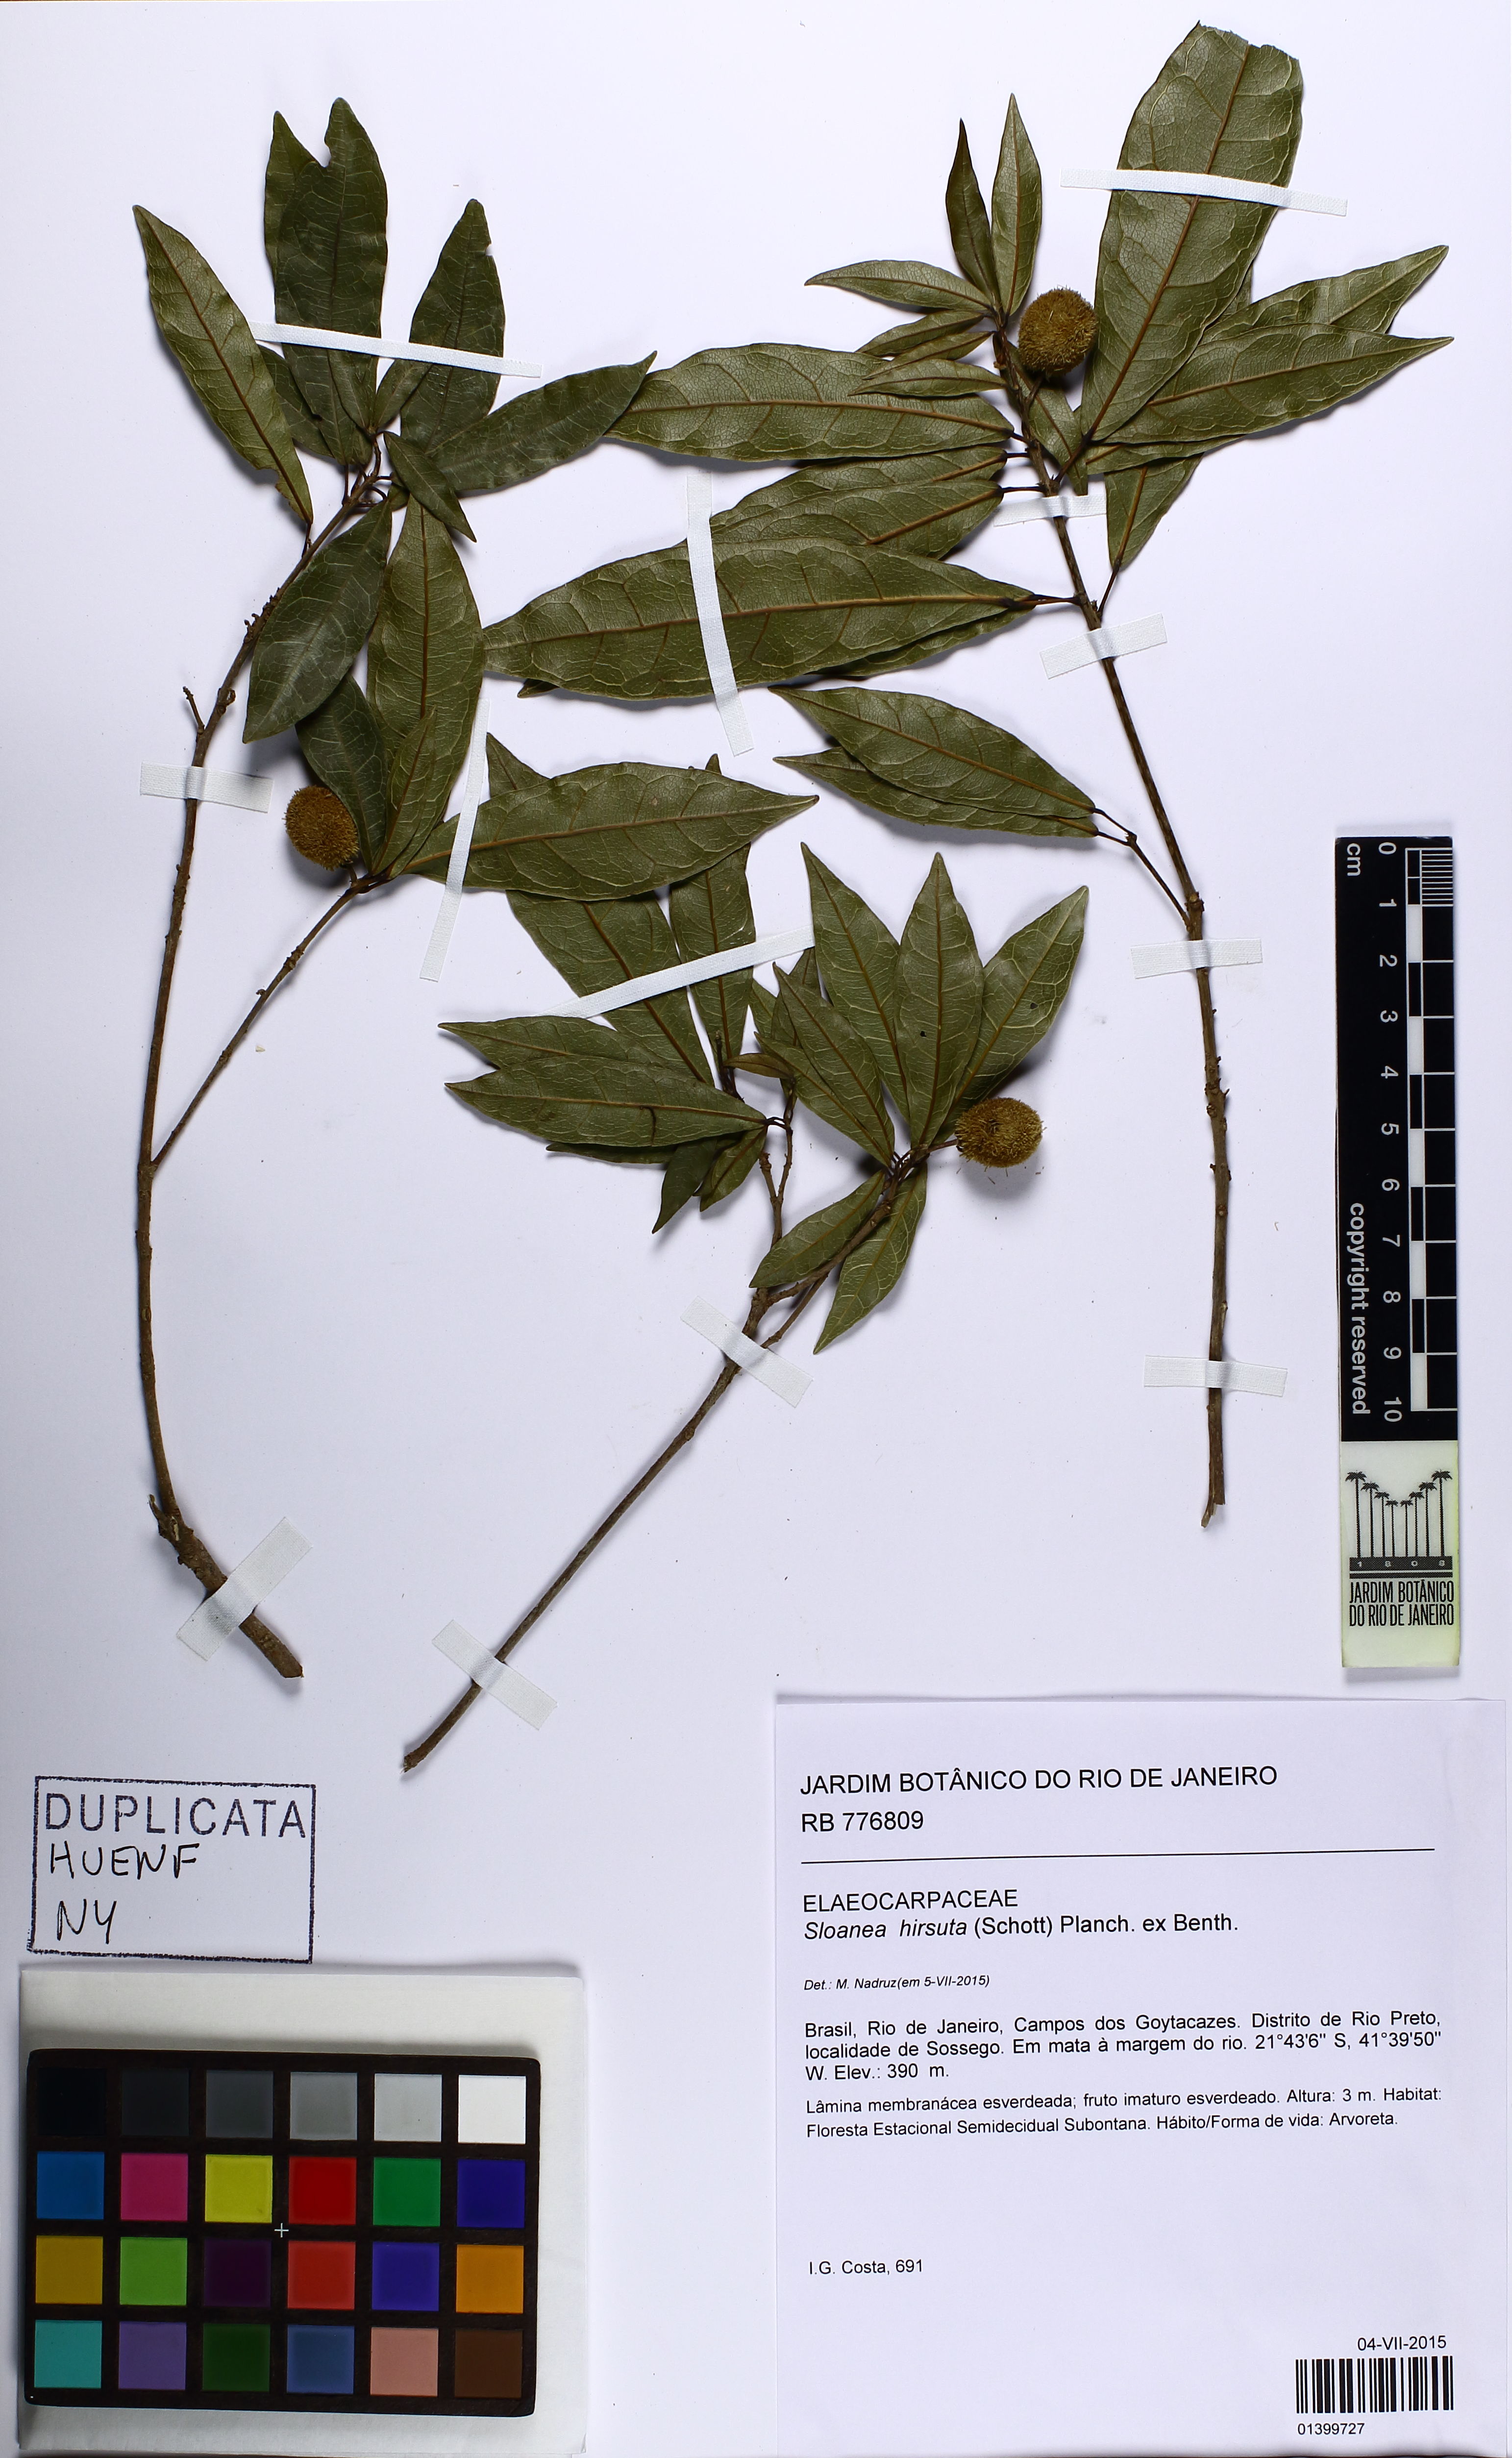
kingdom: Plantae
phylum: Tracheophyta
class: Magnoliopsida
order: Oxalidales
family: Elaeocarpaceae
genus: Sloanea
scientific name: Sloanea hirsuta
